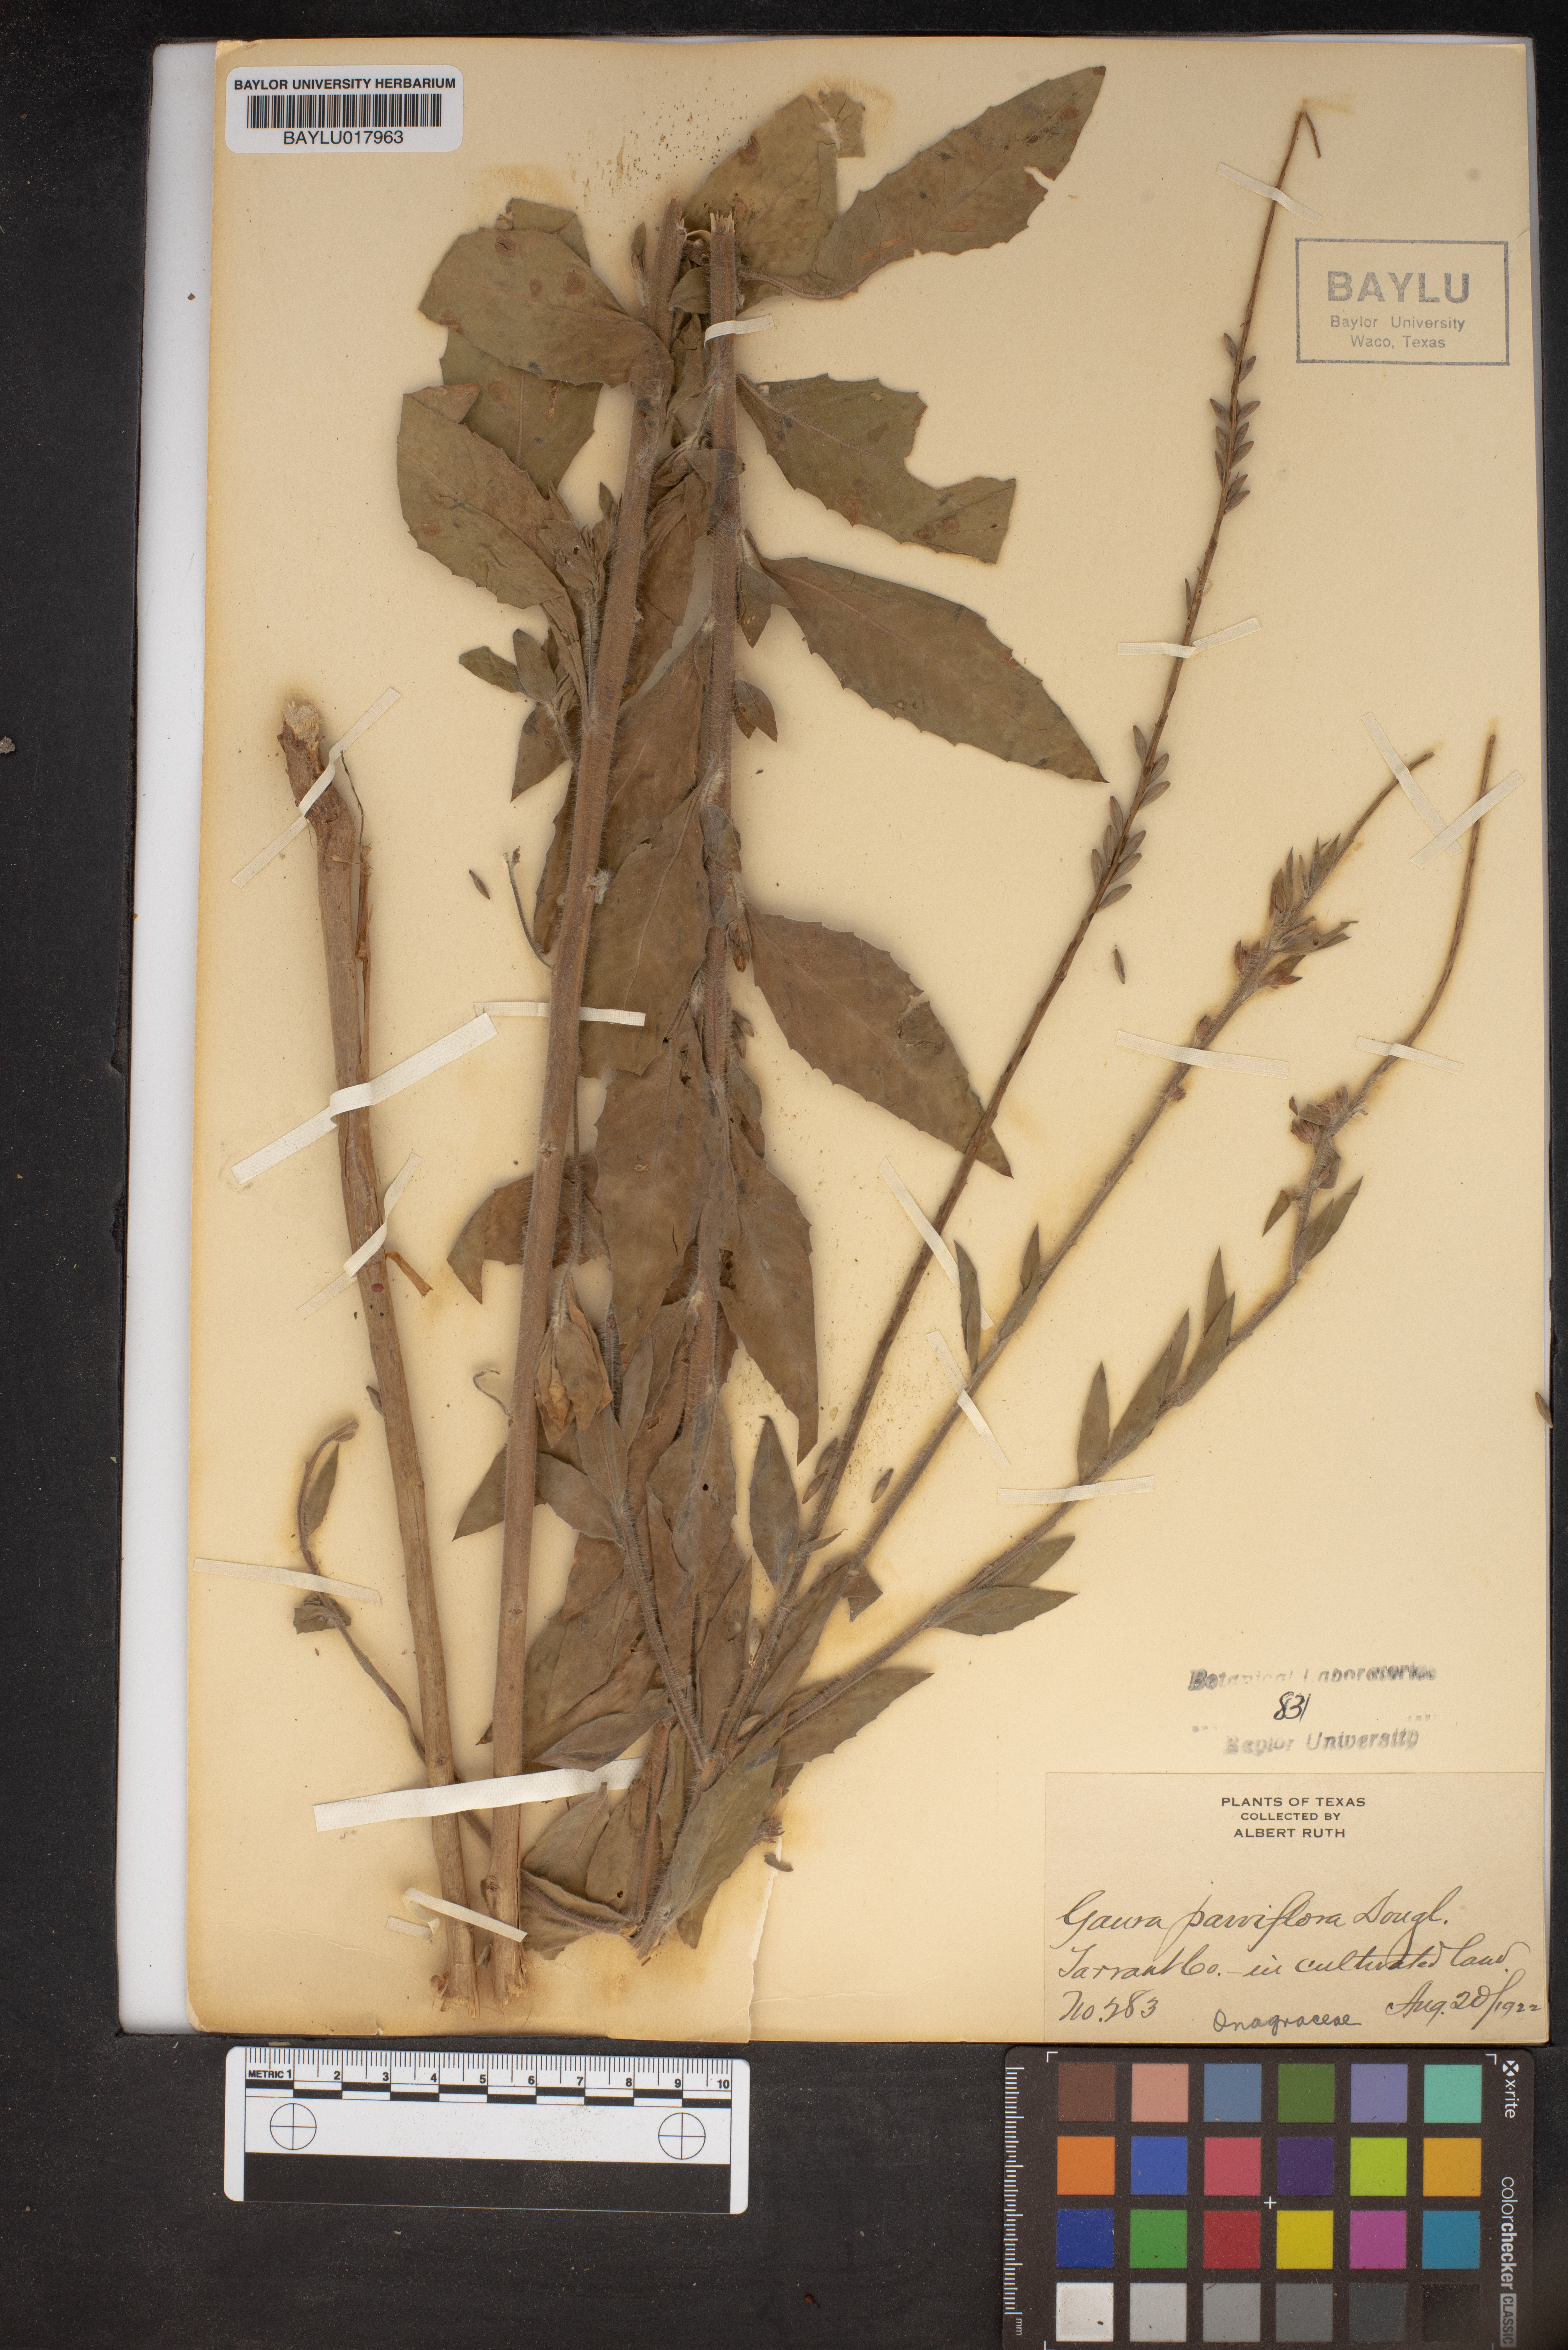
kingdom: Plantae
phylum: Tracheophyta
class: Magnoliopsida
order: Myrtales
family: Onagraceae
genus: Oenothera
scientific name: Oenothera curtiflora
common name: Velvetweed
